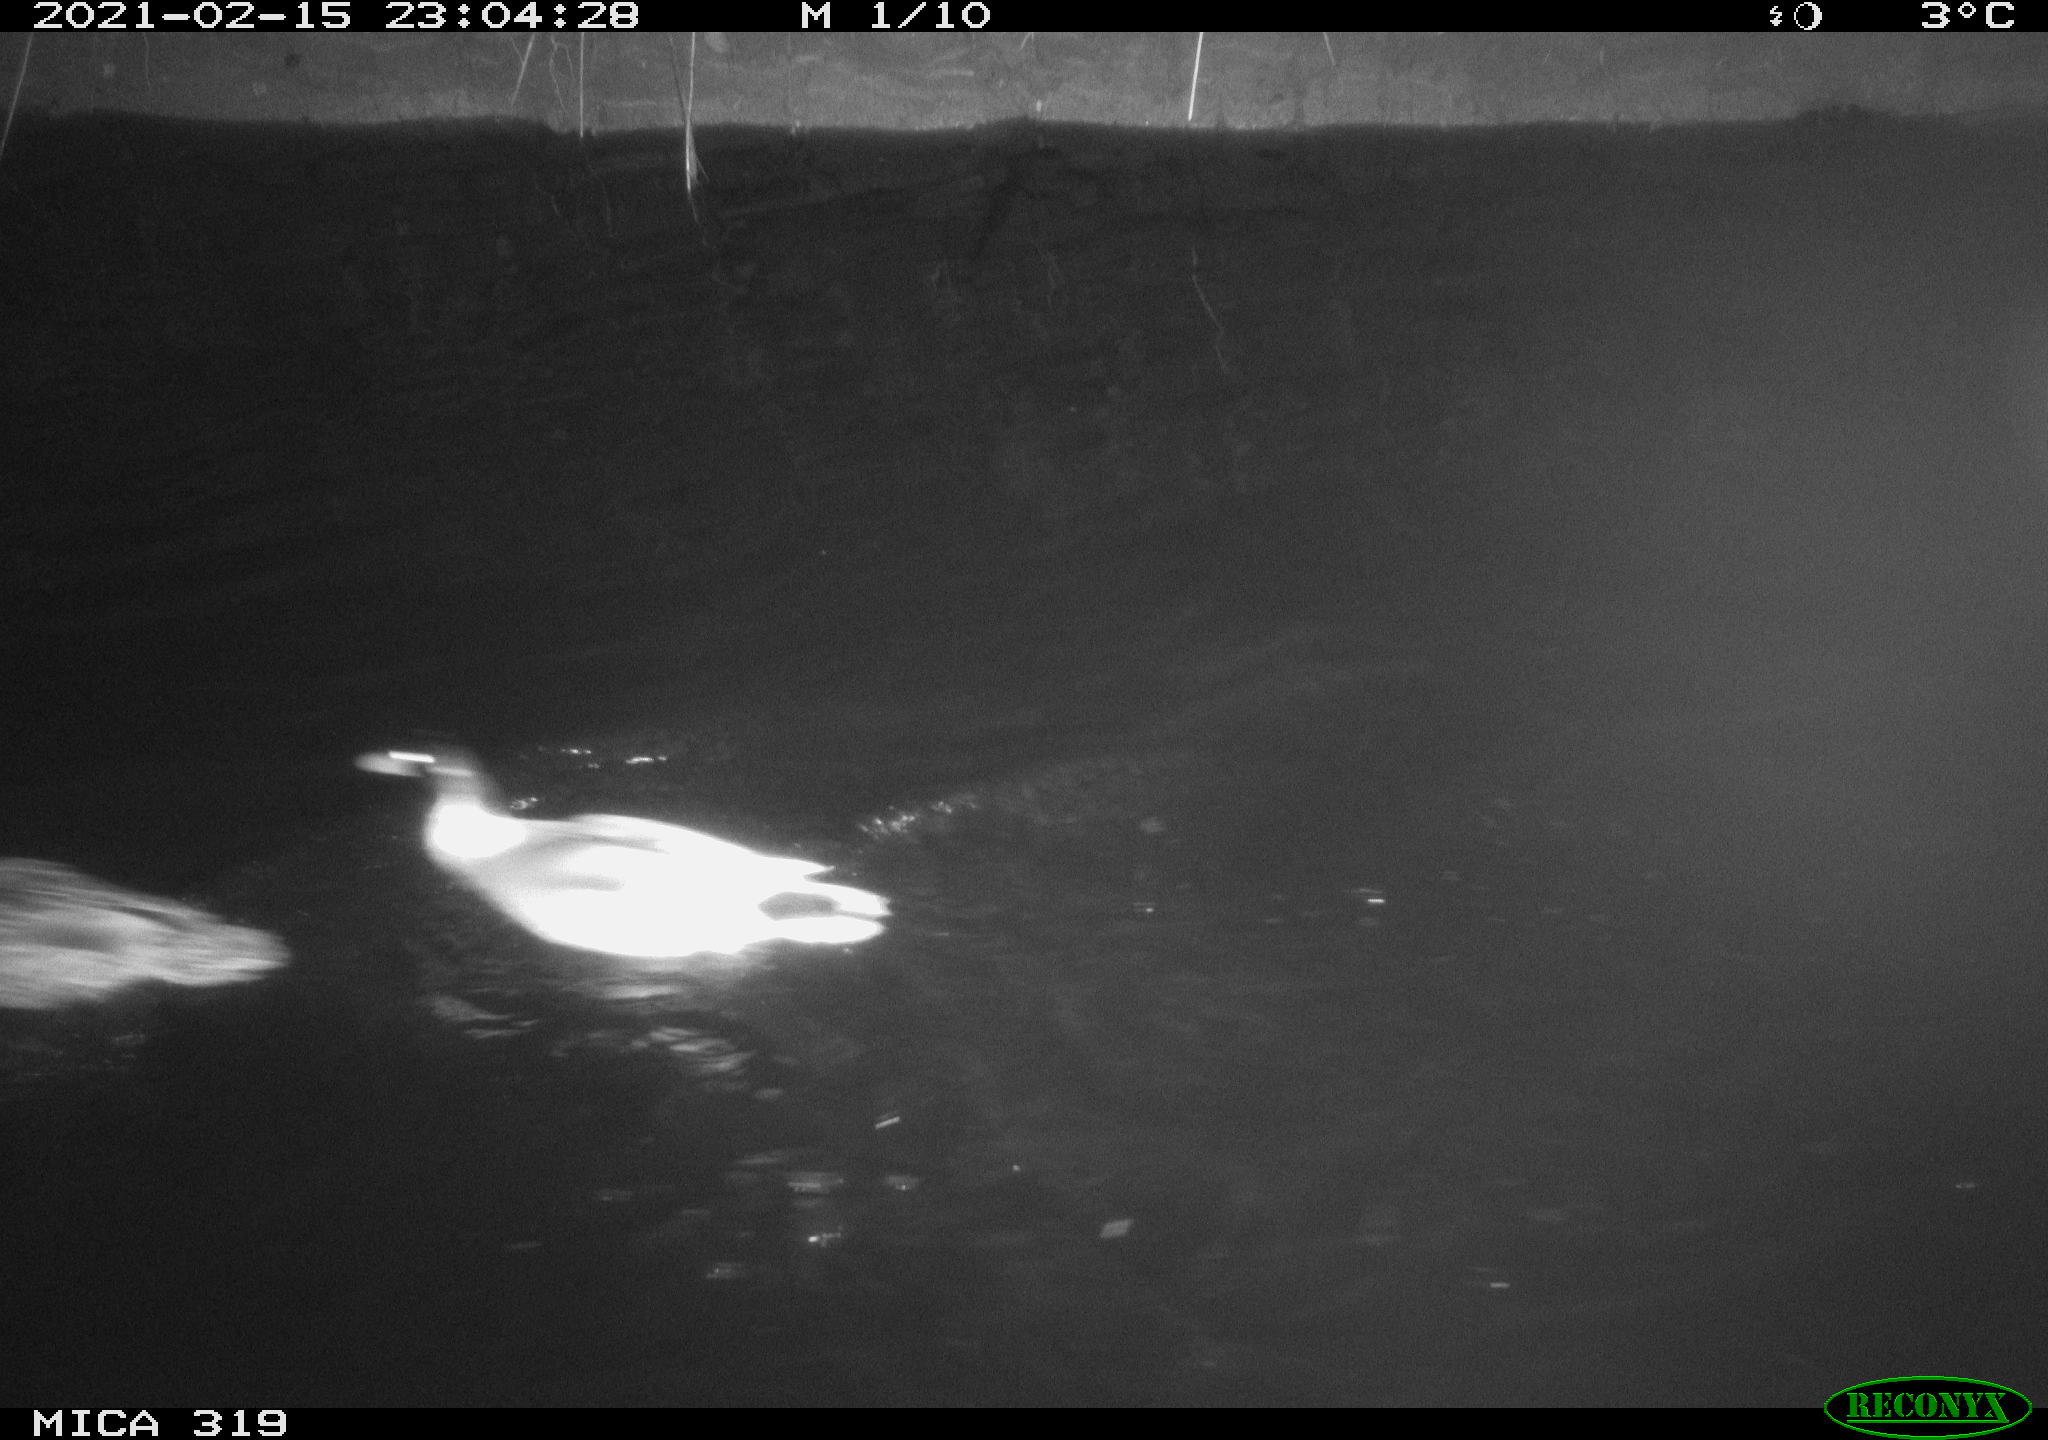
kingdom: Animalia
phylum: Chordata
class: Aves
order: Anseriformes
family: Anatidae
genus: Anas
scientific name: Anas platyrhynchos
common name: Mallard
